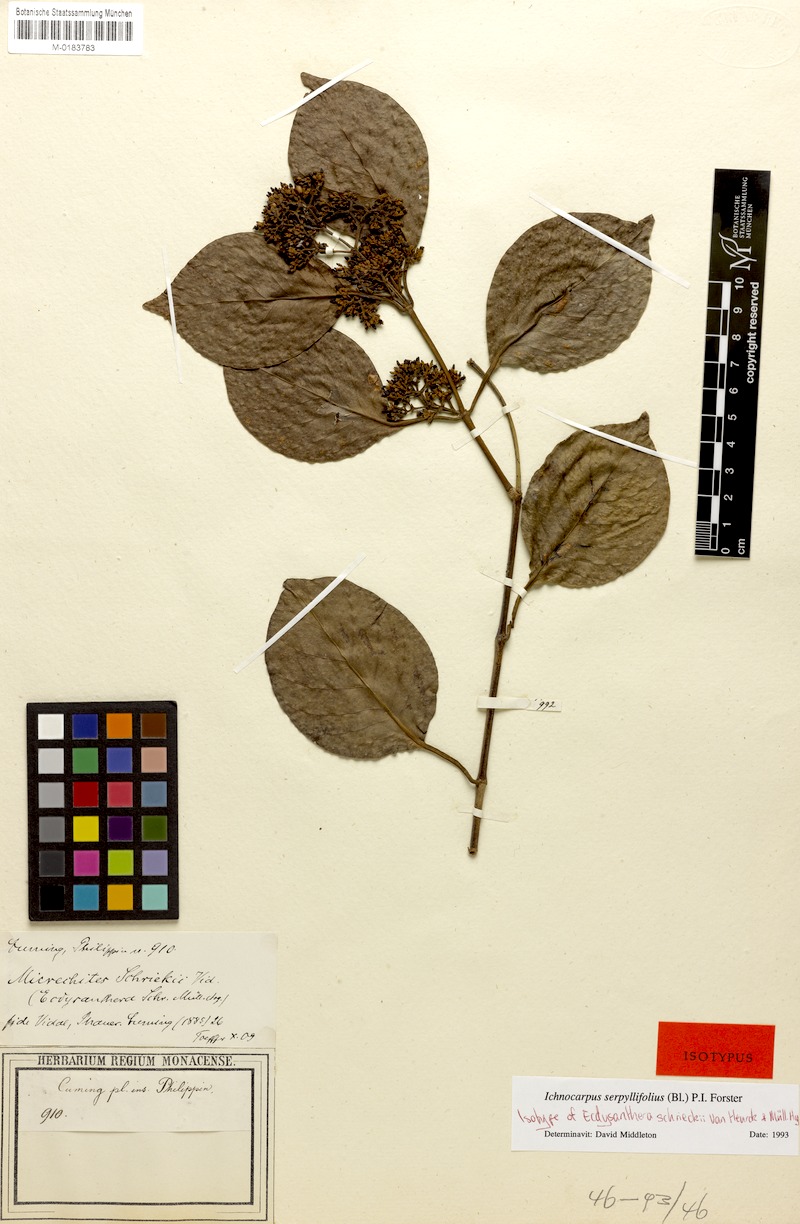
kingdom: Plantae
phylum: Tracheophyta
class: Magnoliopsida
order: Gentianales
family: Apocynaceae
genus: Micrechites
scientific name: Micrechites serpyllifolia
